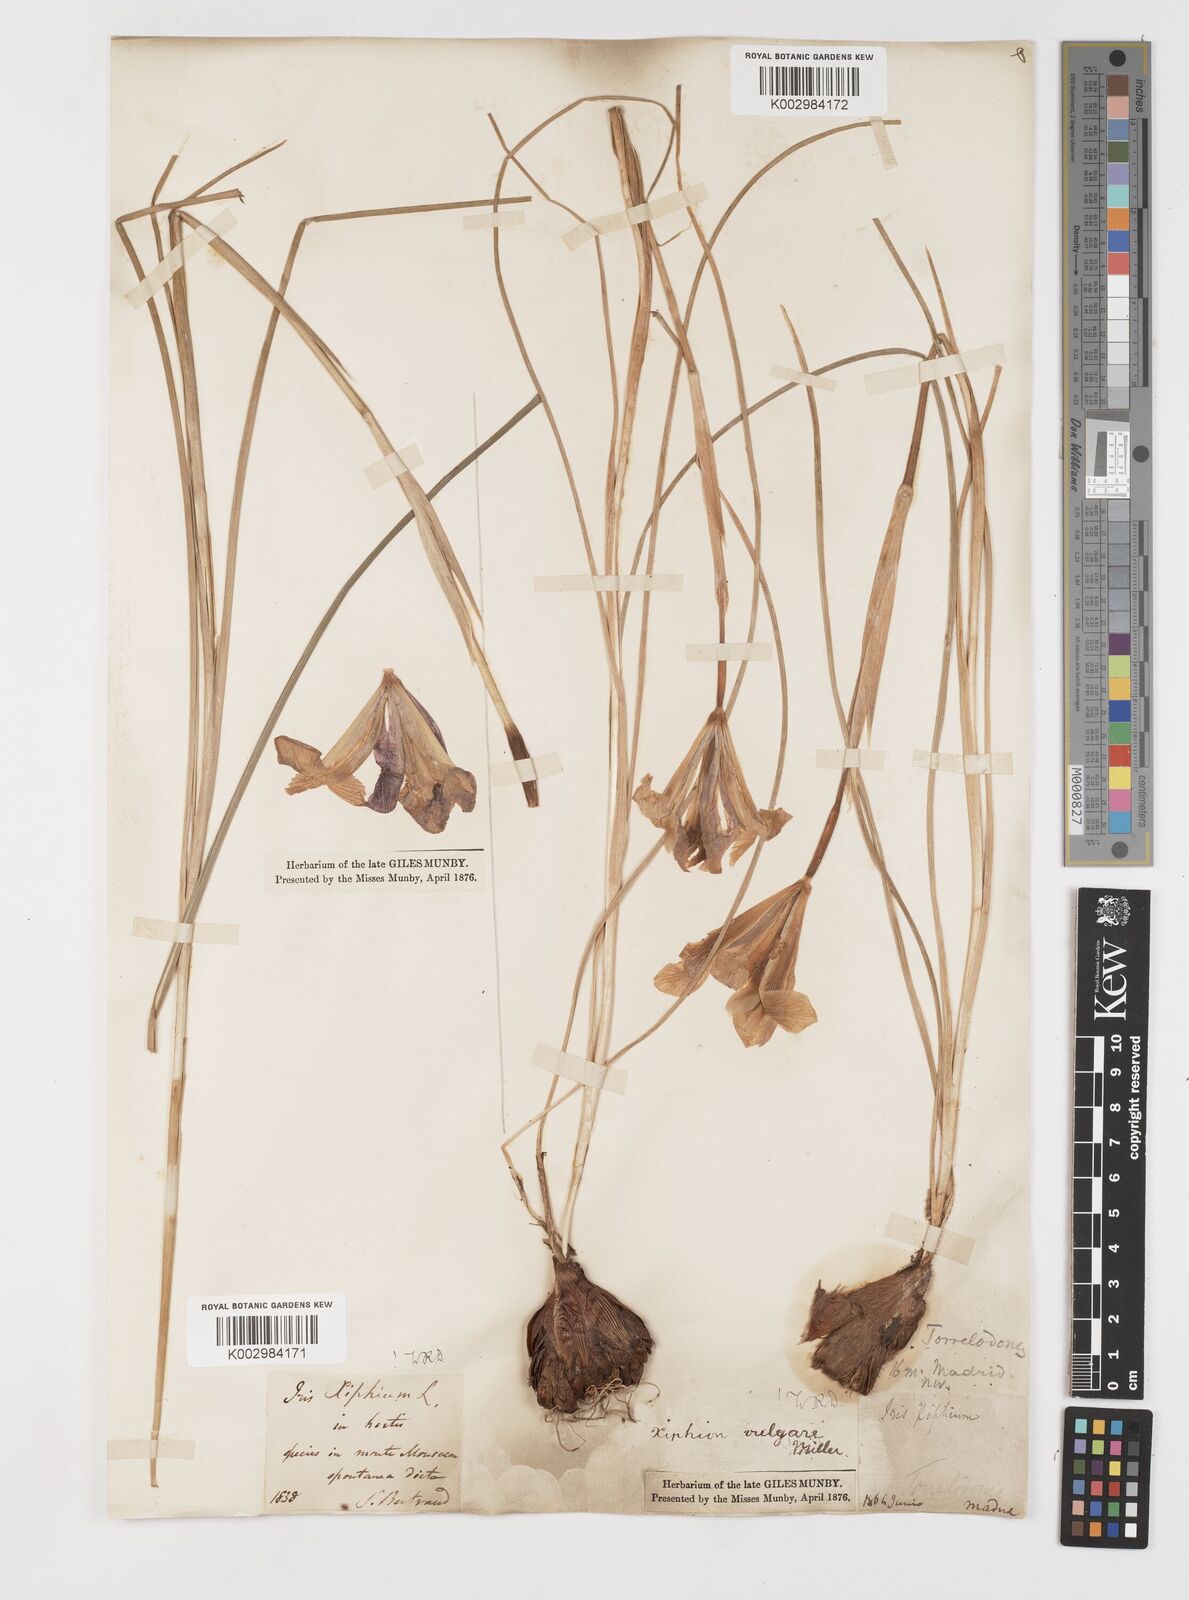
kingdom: Plantae
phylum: Tracheophyta
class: Liliopsida
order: Asparagales
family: Iridaceae
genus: Iris
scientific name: Iris xiphium
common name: Spanish iris
